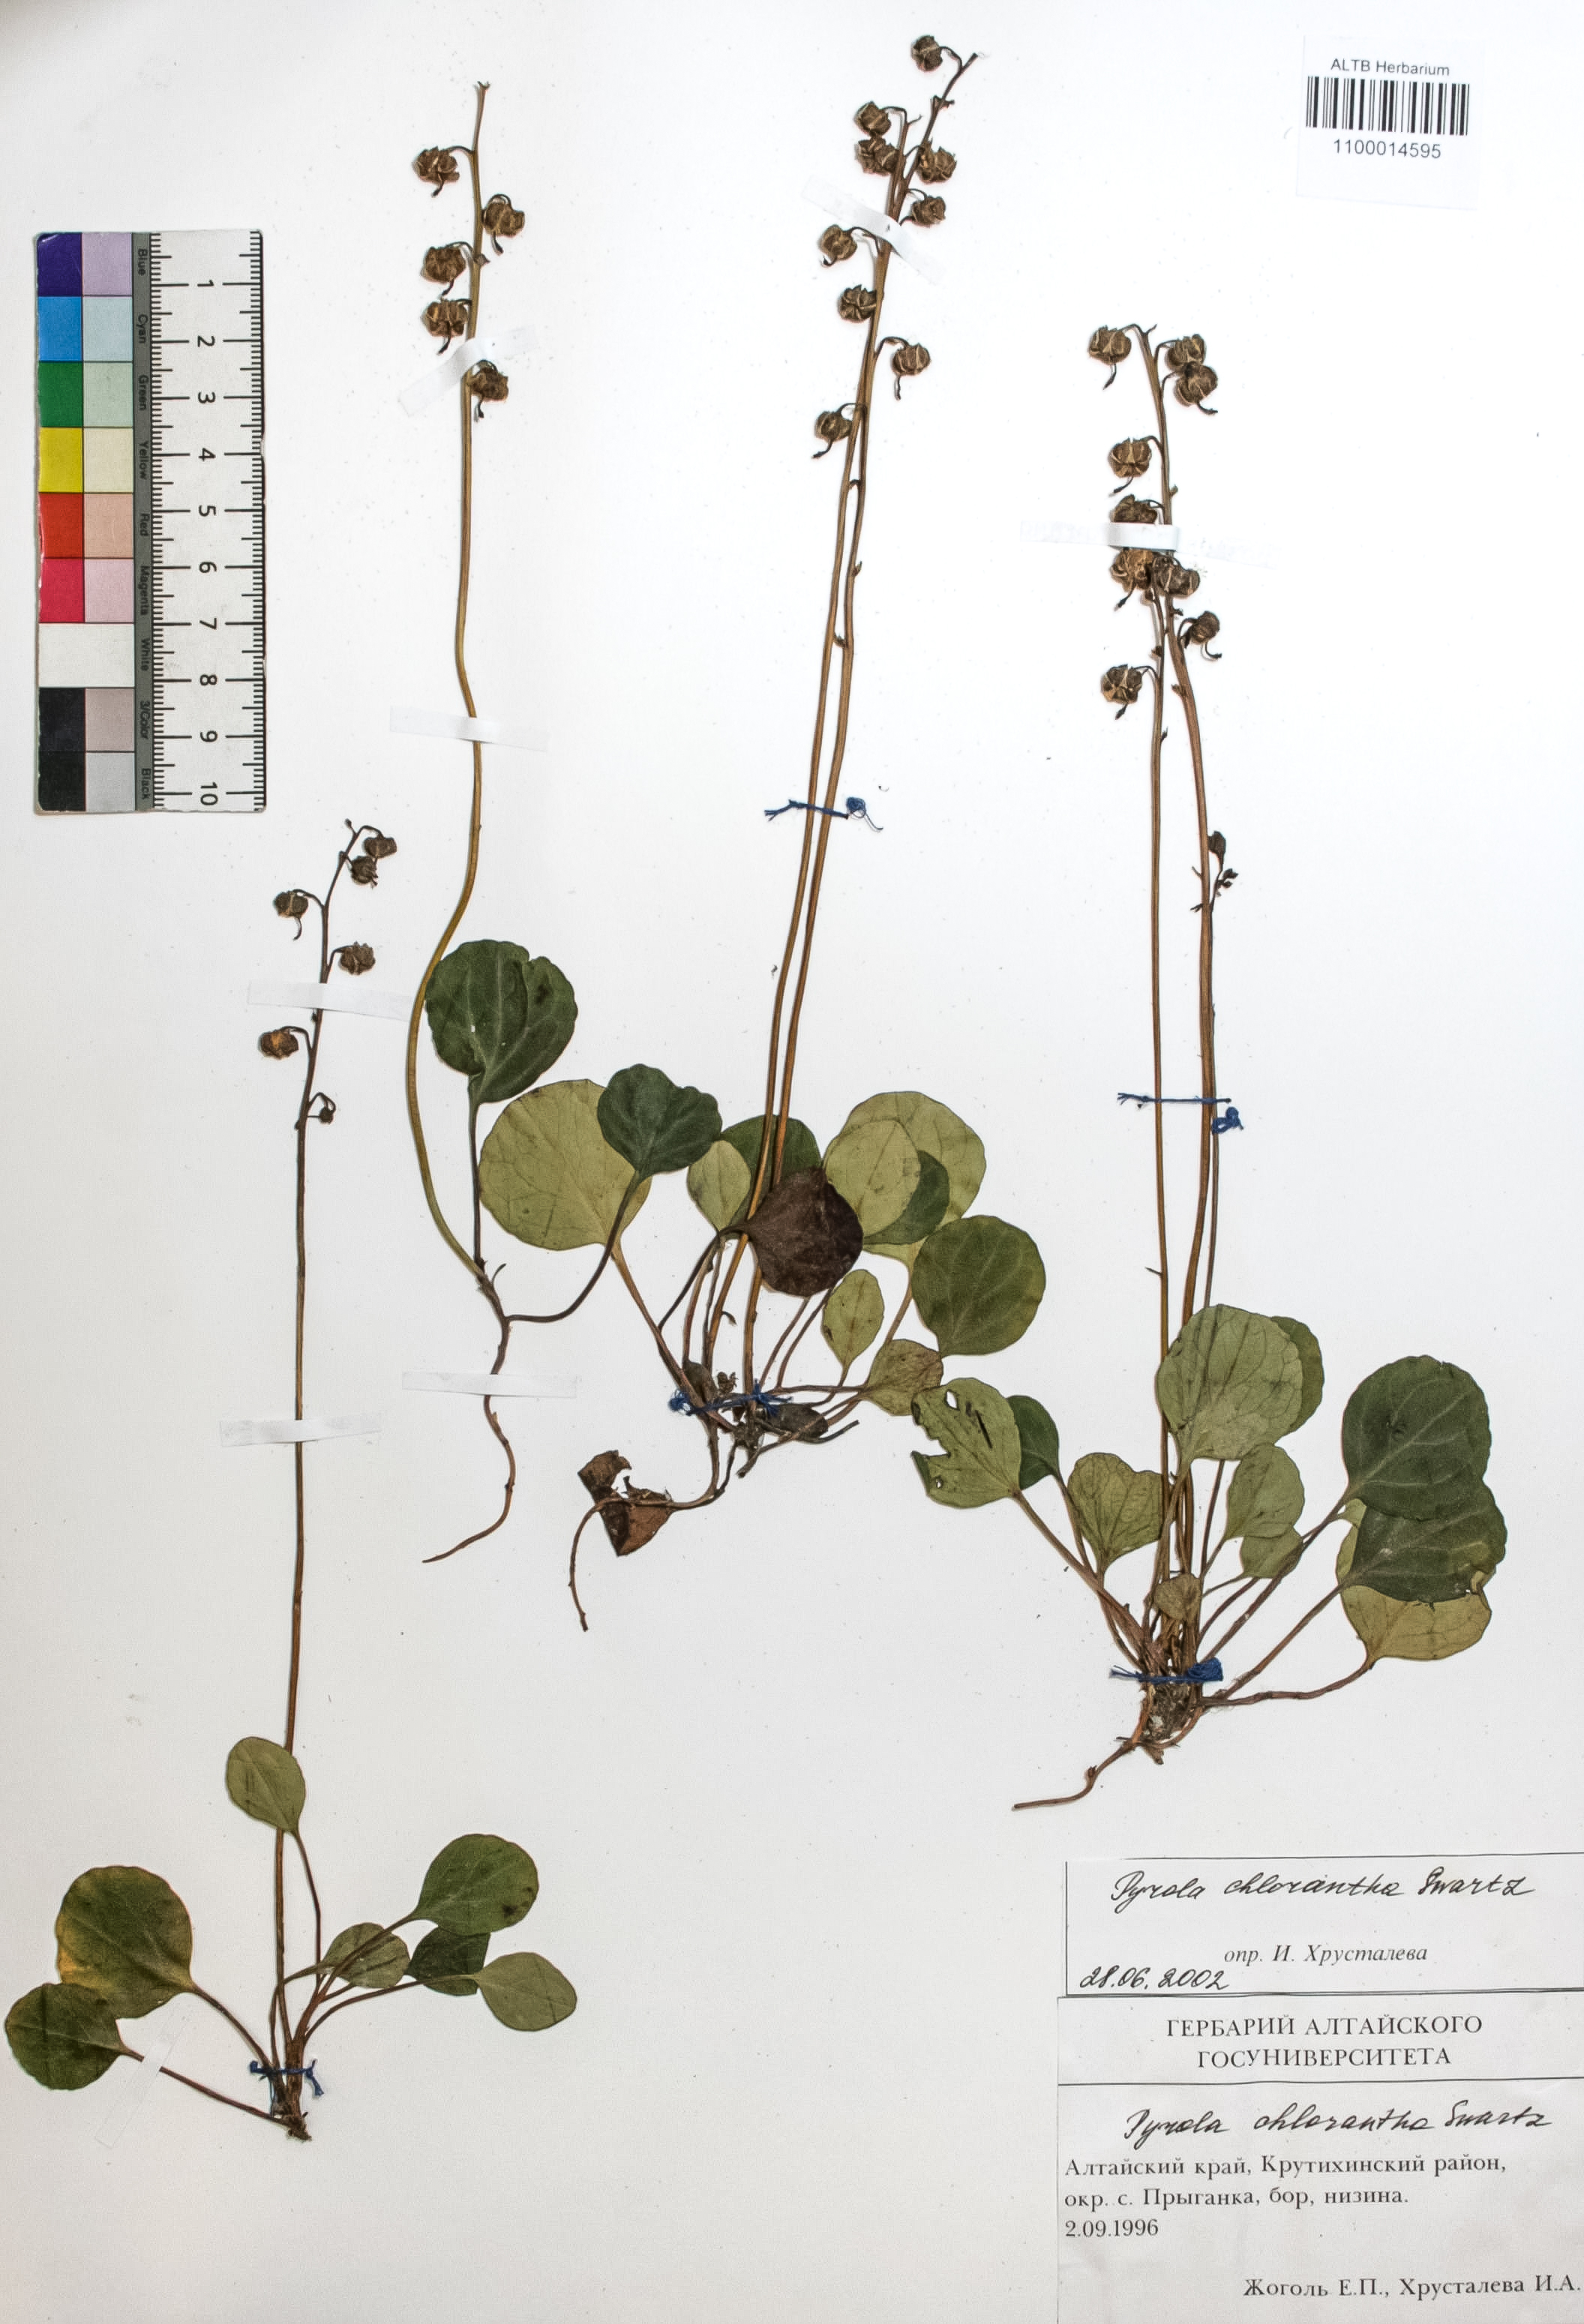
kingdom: Plantae
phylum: Tracheophyta
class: Magnoliopsida
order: Ericales
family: Ericaceae
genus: Pyrola
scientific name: Pyrola chlorantha
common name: Green wintergreen
